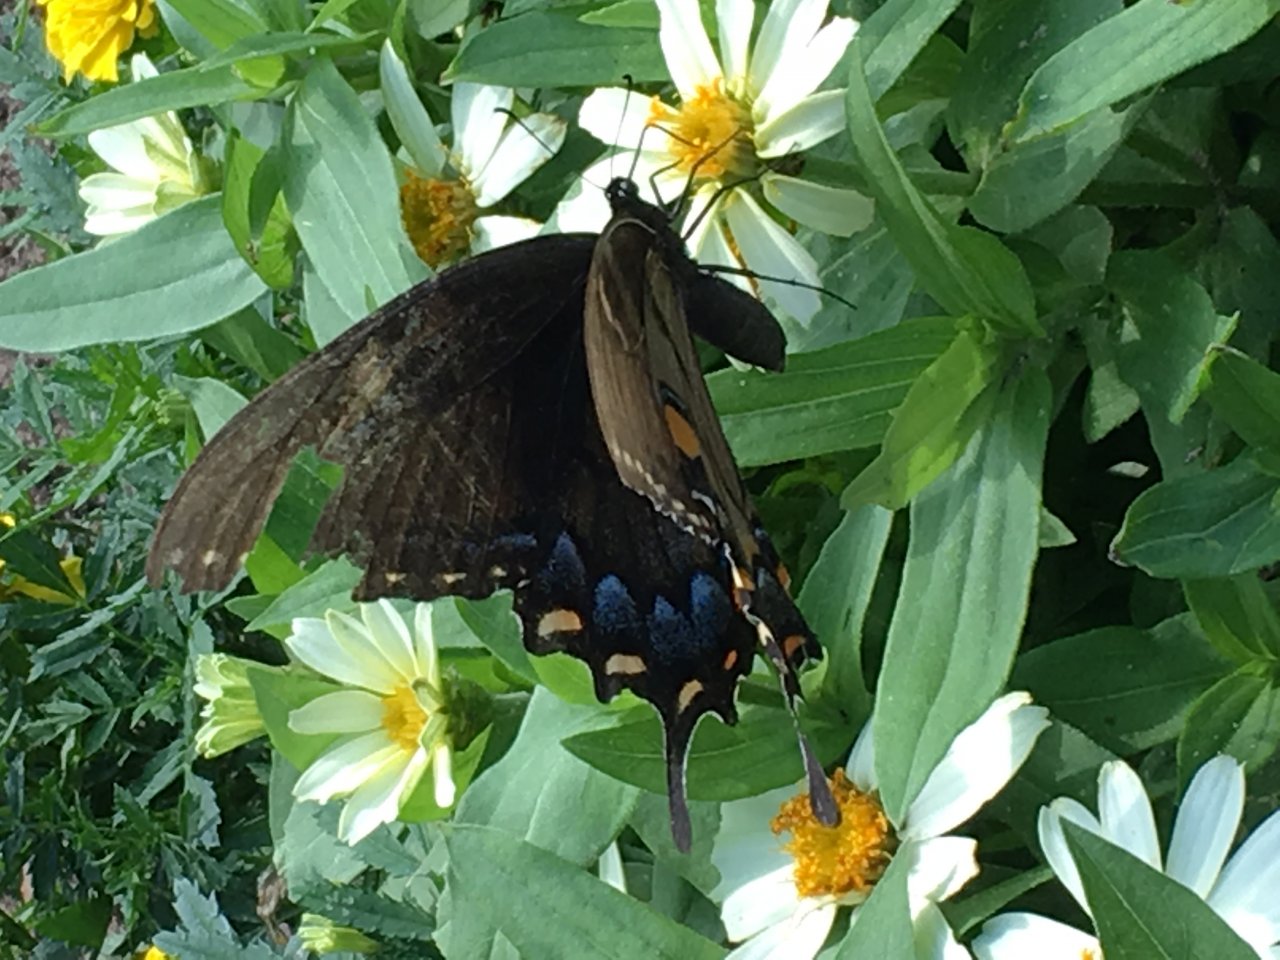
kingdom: Animalia
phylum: Arthropoda
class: Insecta
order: Lepidoptera
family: Papilionidae
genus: Pterourus
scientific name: Pterourus glaucus
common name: Eastern Tiger Swallowtail
